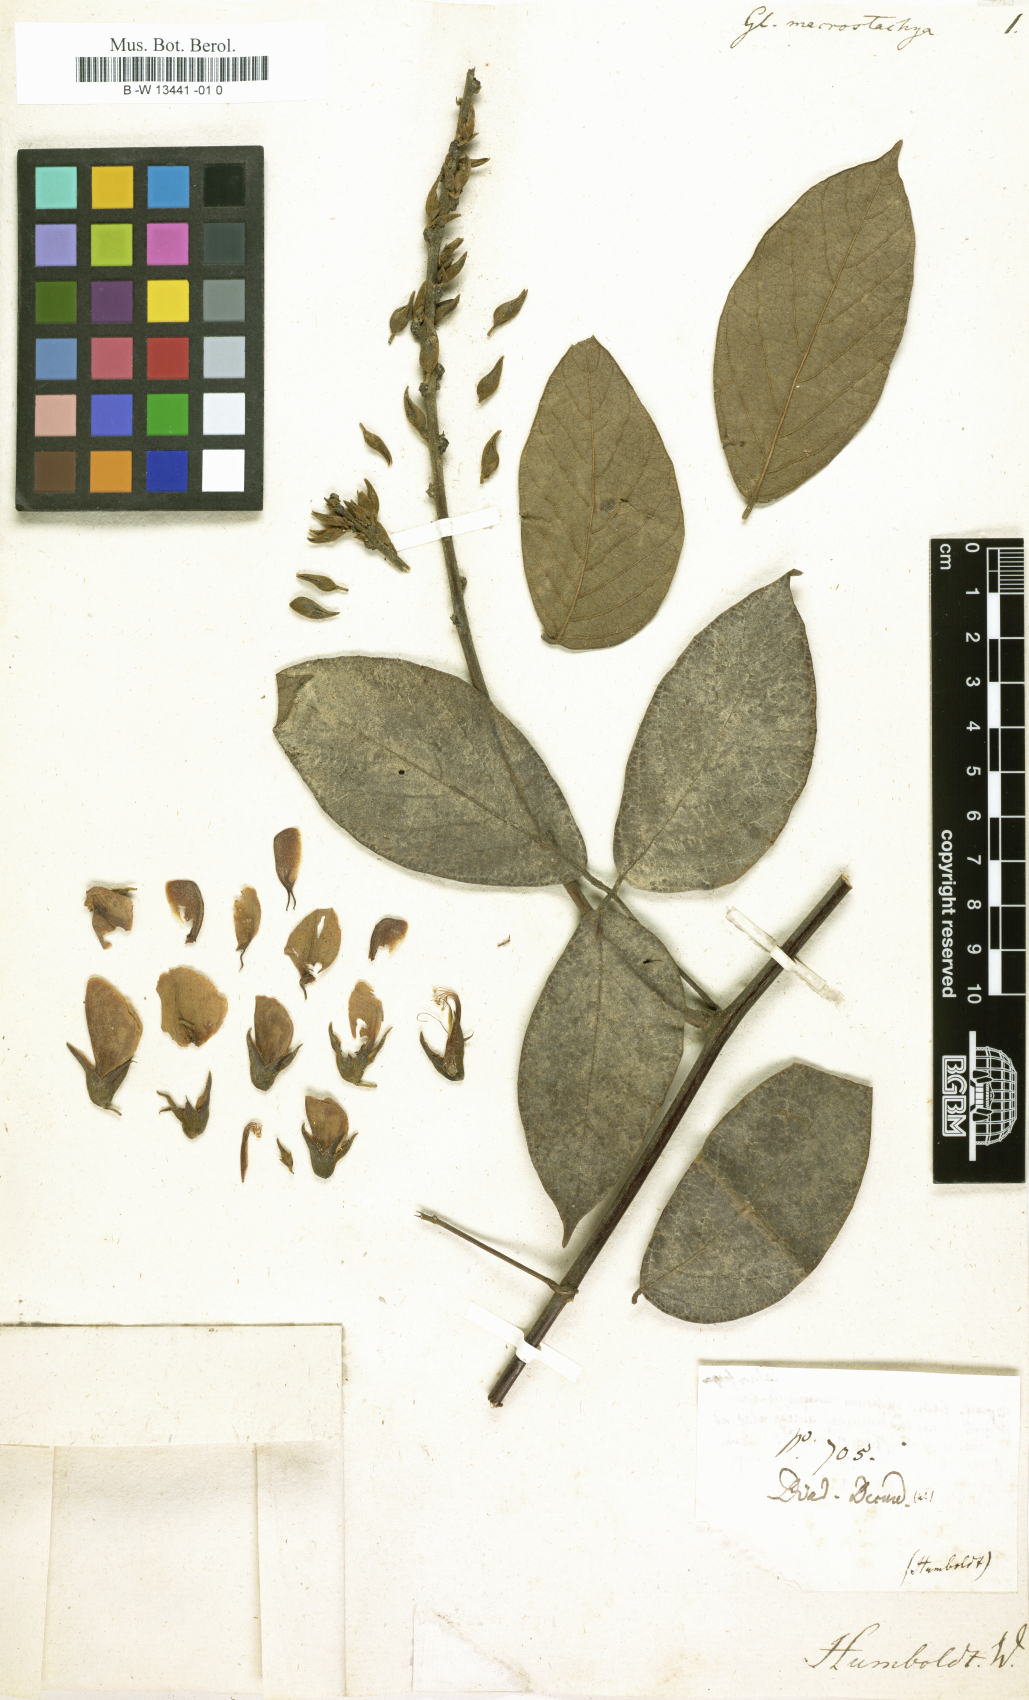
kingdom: Plantae
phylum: Tracheophyta
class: Magnoliopsida
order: Fabales
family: Fabaceae
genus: Glycine
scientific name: Glycine
